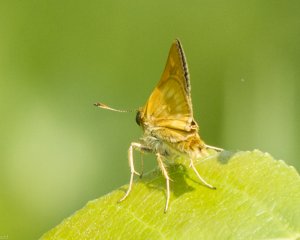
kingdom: Animalia
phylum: Arthropoda
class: Insecta
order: Lepidoptera
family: Hesperiidae
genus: Polites
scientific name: Polites
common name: Long Dash Skipper
